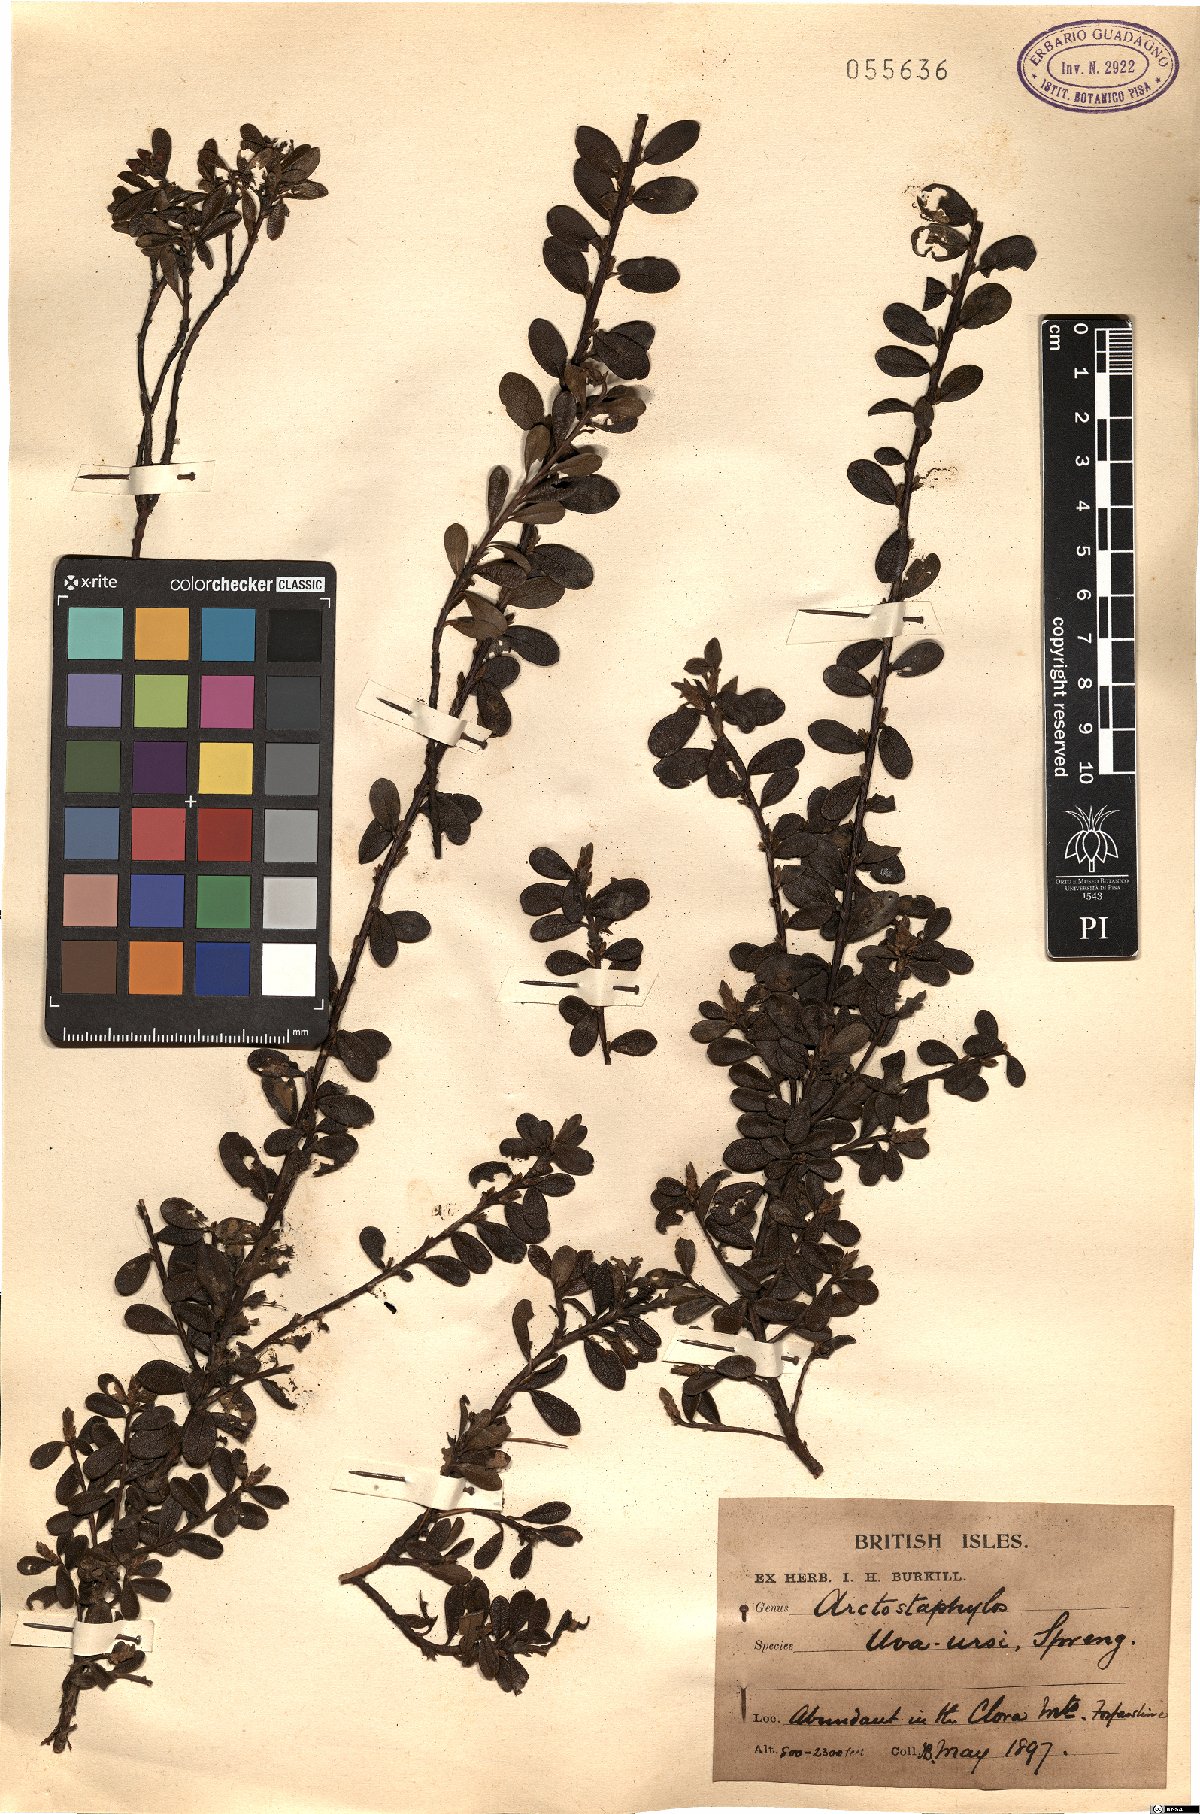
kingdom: Plantae
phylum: Tracheophyta
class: Magnoliopsida
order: Ericales
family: Ericaceae
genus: Arctostaphylos
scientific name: Arctostaphylos uva-ursi
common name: Bearberry
